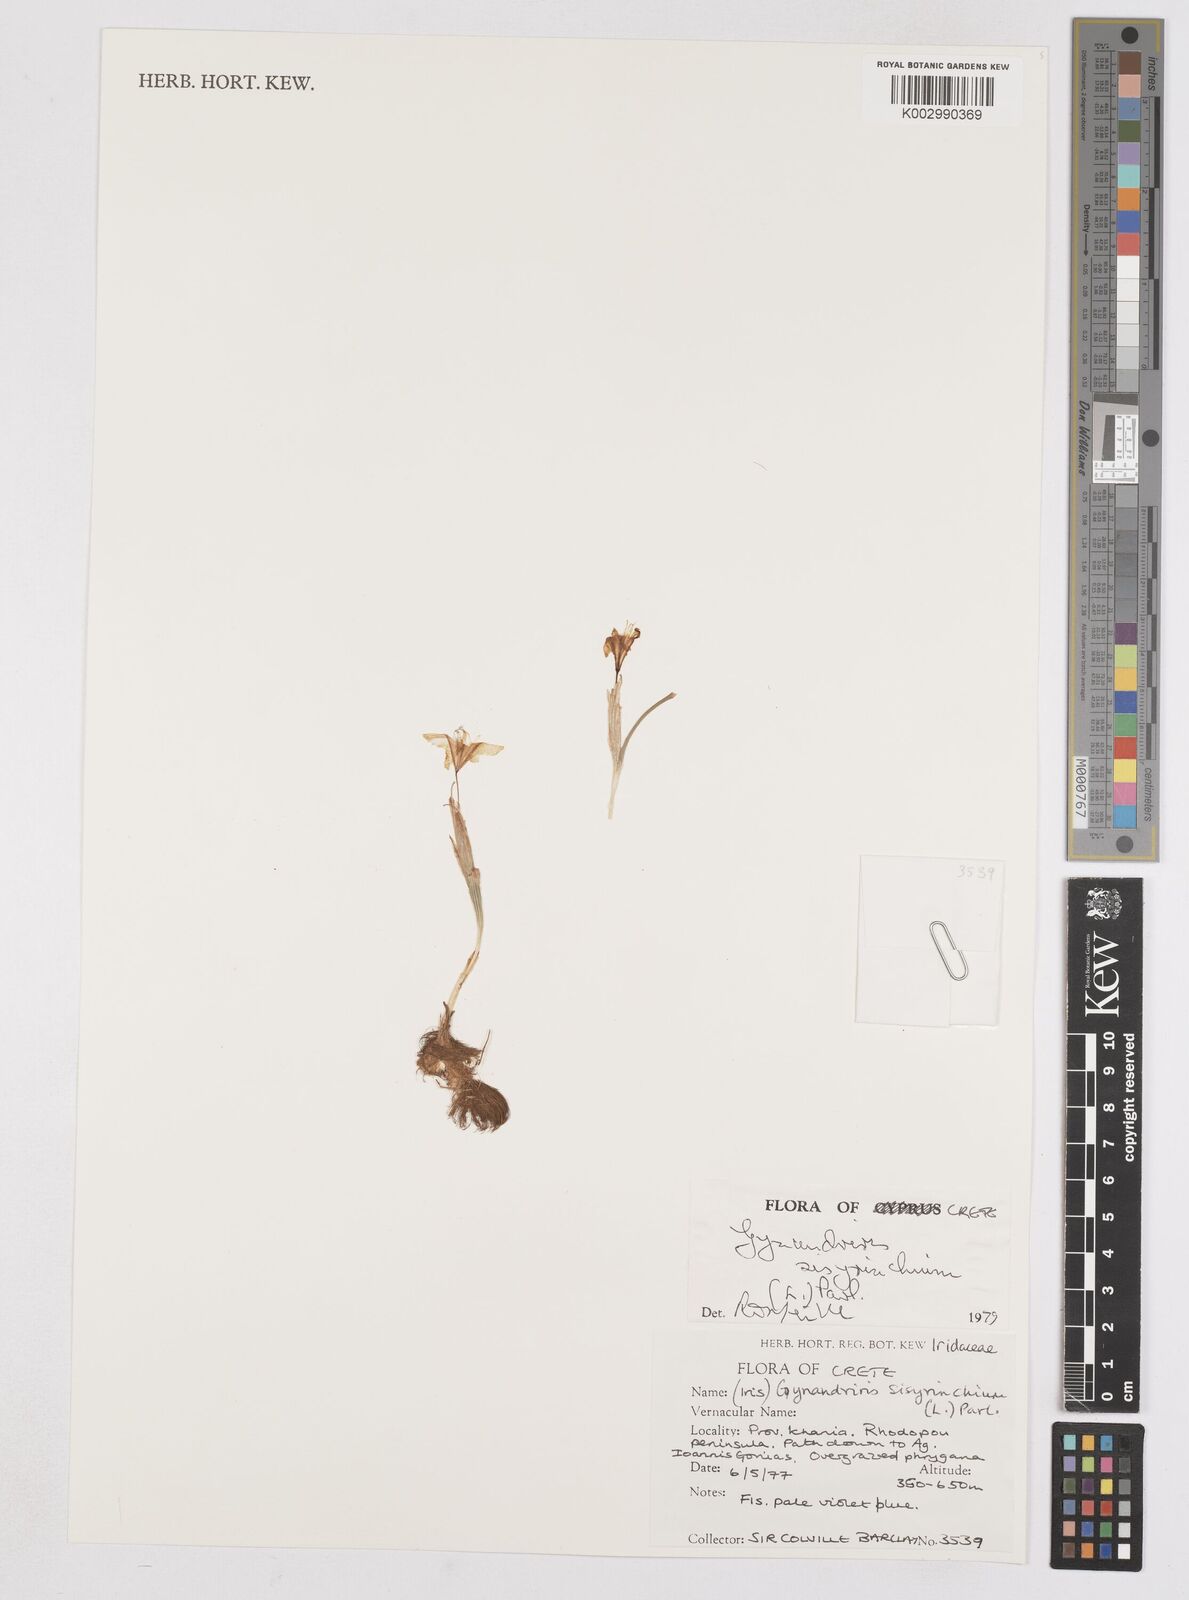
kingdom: Plantae
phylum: Tracheophyta
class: Liliopsida
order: Asparagales
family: Iridaceae
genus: Moraea
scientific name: Moraea sisyrinchium
